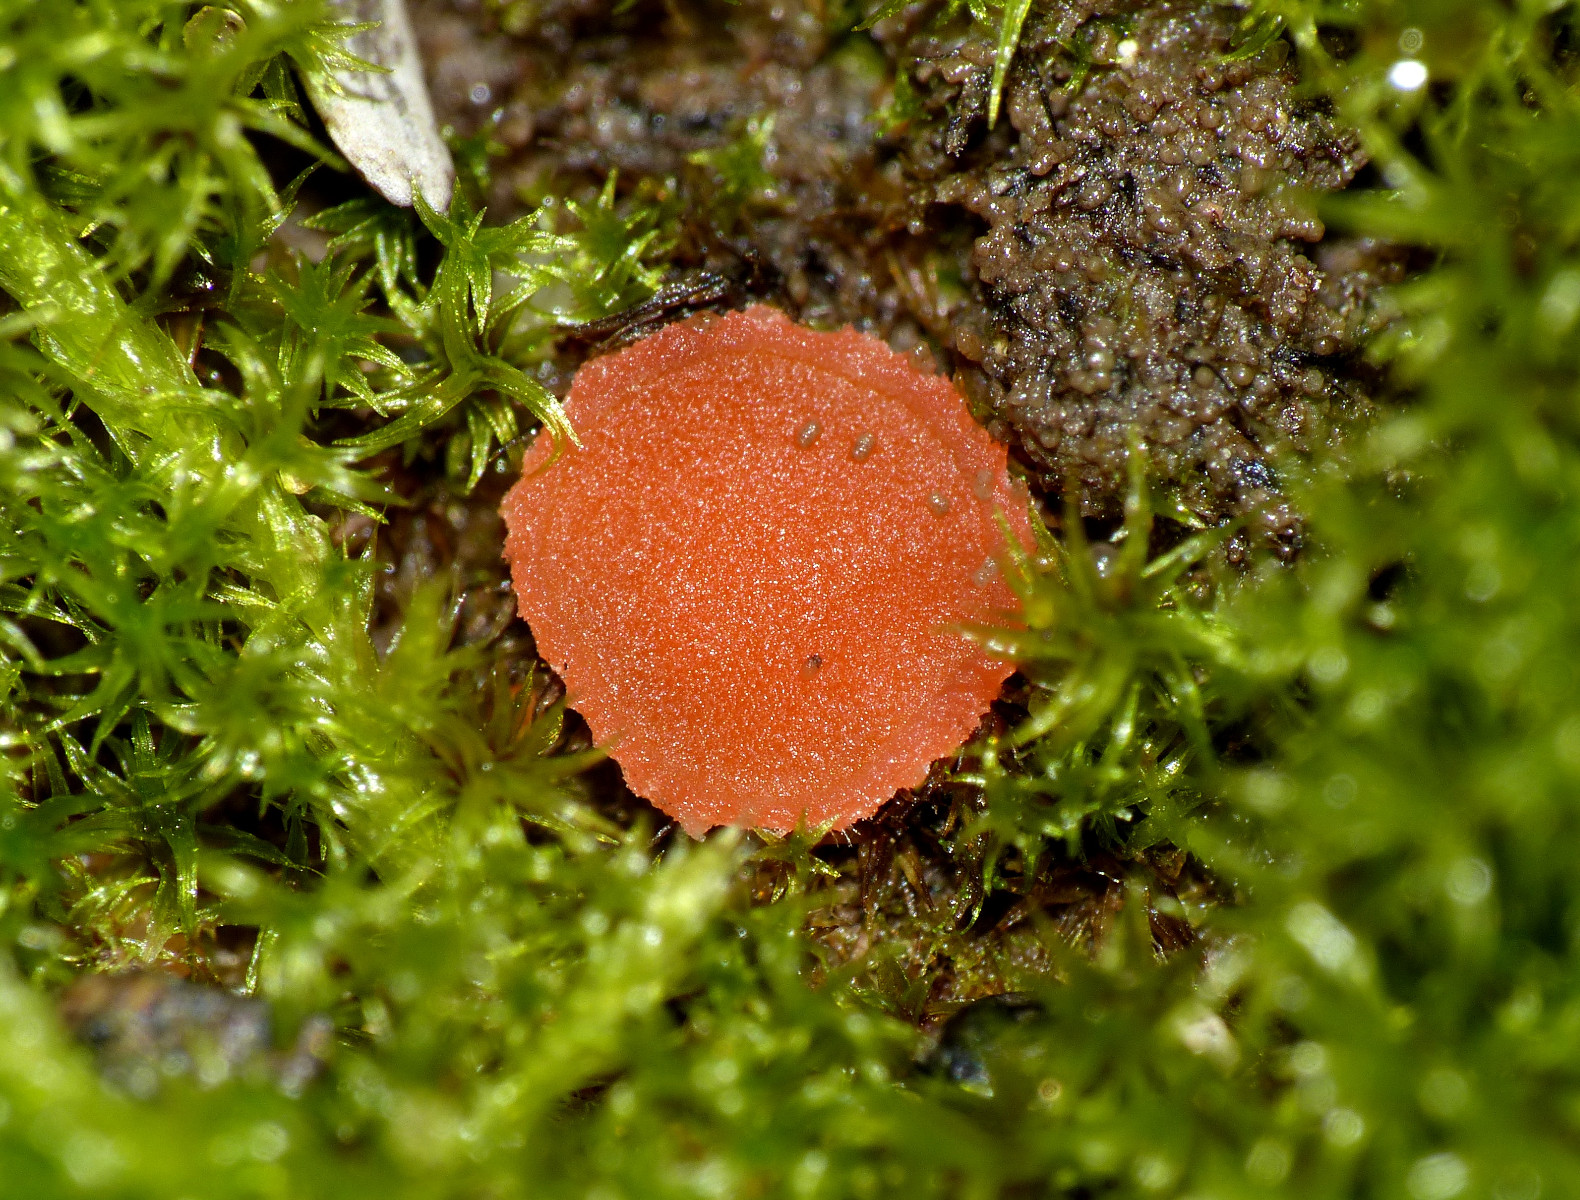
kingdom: Fungi
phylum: Ascomycota
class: Pezizomycetes
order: Pezizales
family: Pyronemataceae
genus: Octospora
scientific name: Octospora rubens
